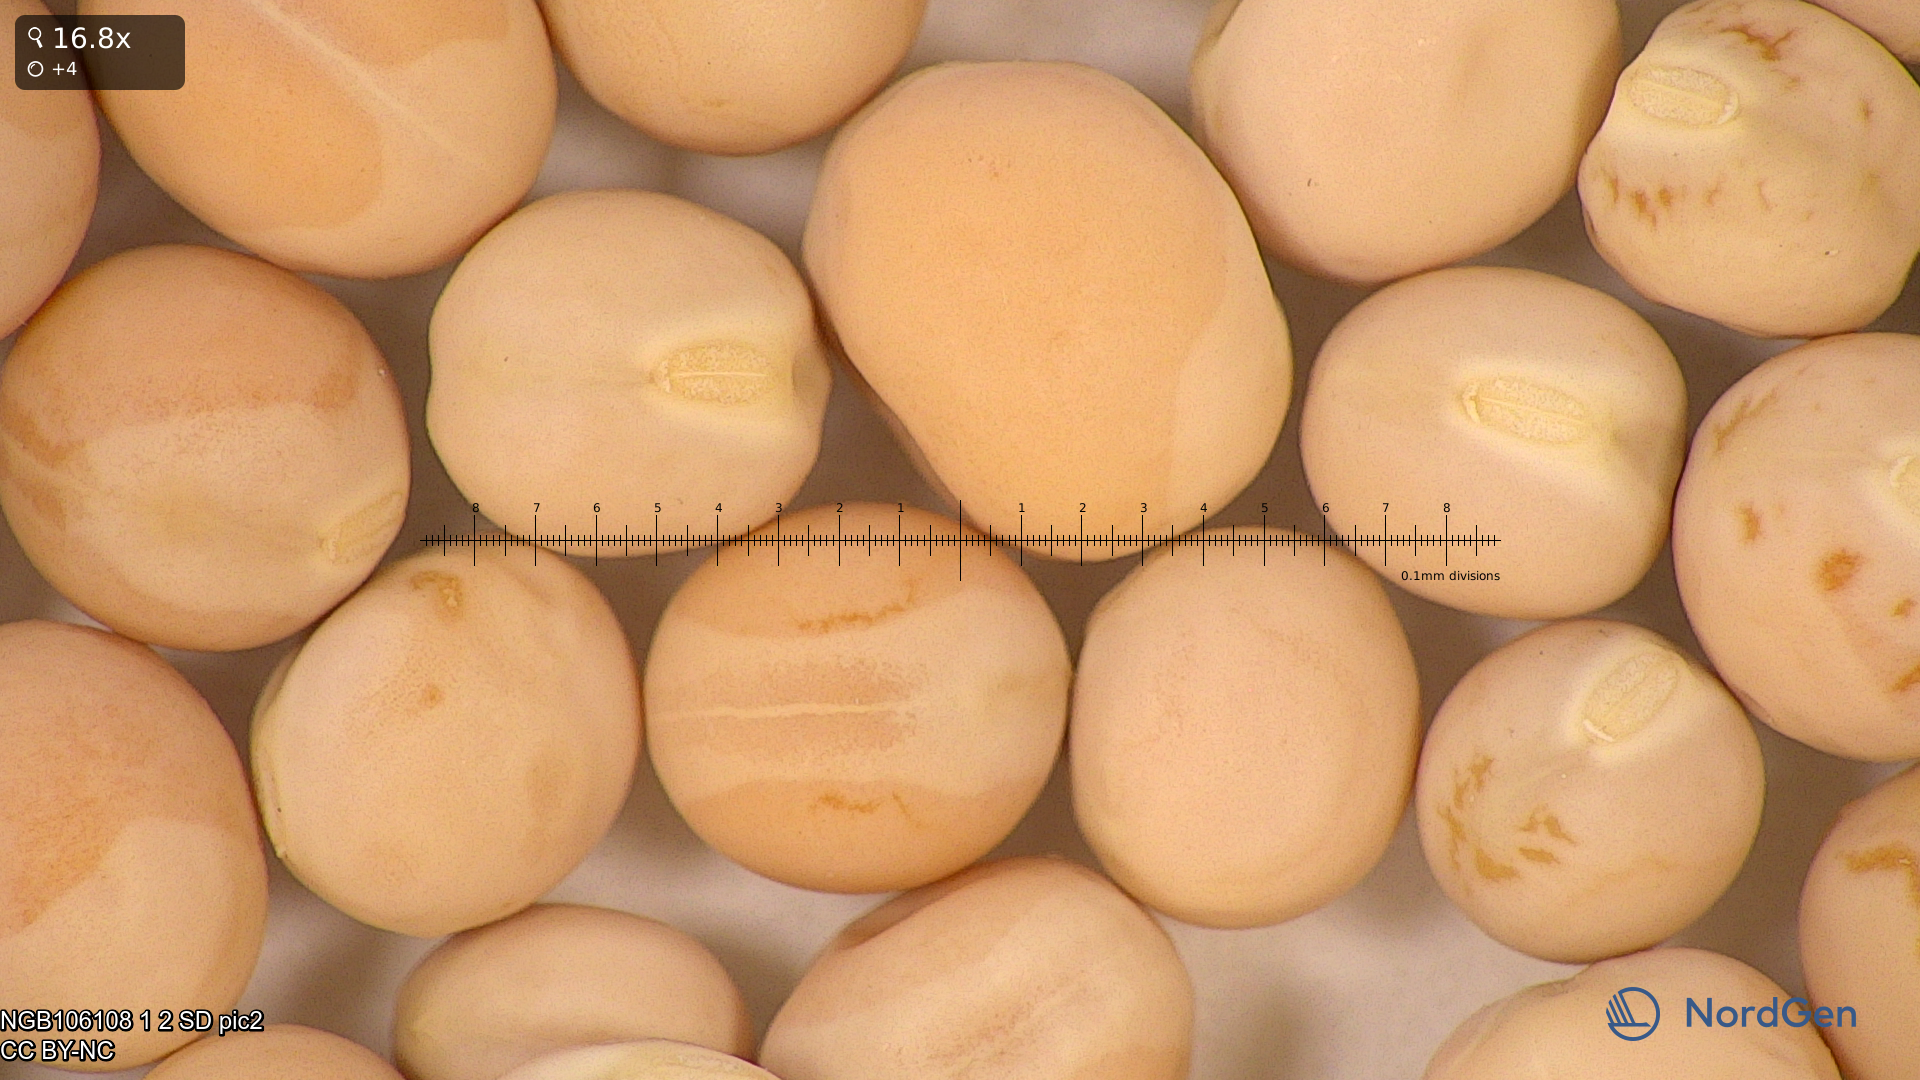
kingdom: Plantae
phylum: Tracheophyta
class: Magnoliopsida
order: Fabales
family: Fabaceae
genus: Lathyrus
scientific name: Lathyrus oleraceus
